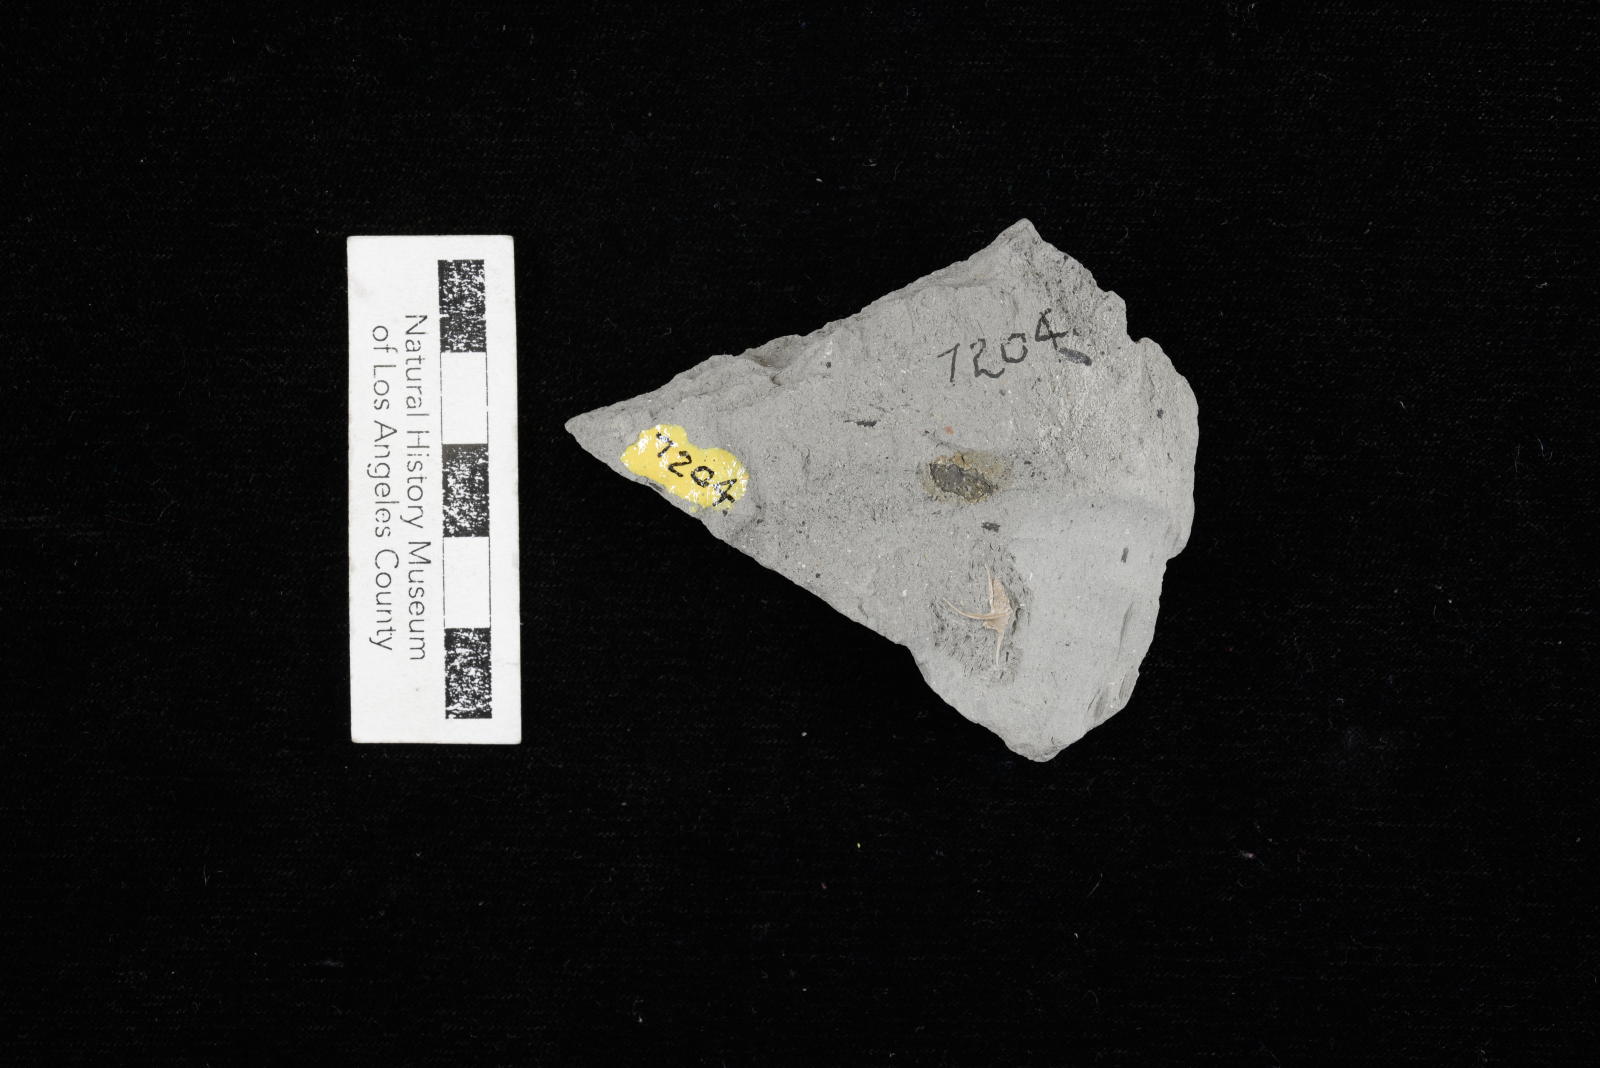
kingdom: Animalia
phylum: Mollusca
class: Gastropoda
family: Turritellidae
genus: Turritella
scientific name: Turritella chicoensis
